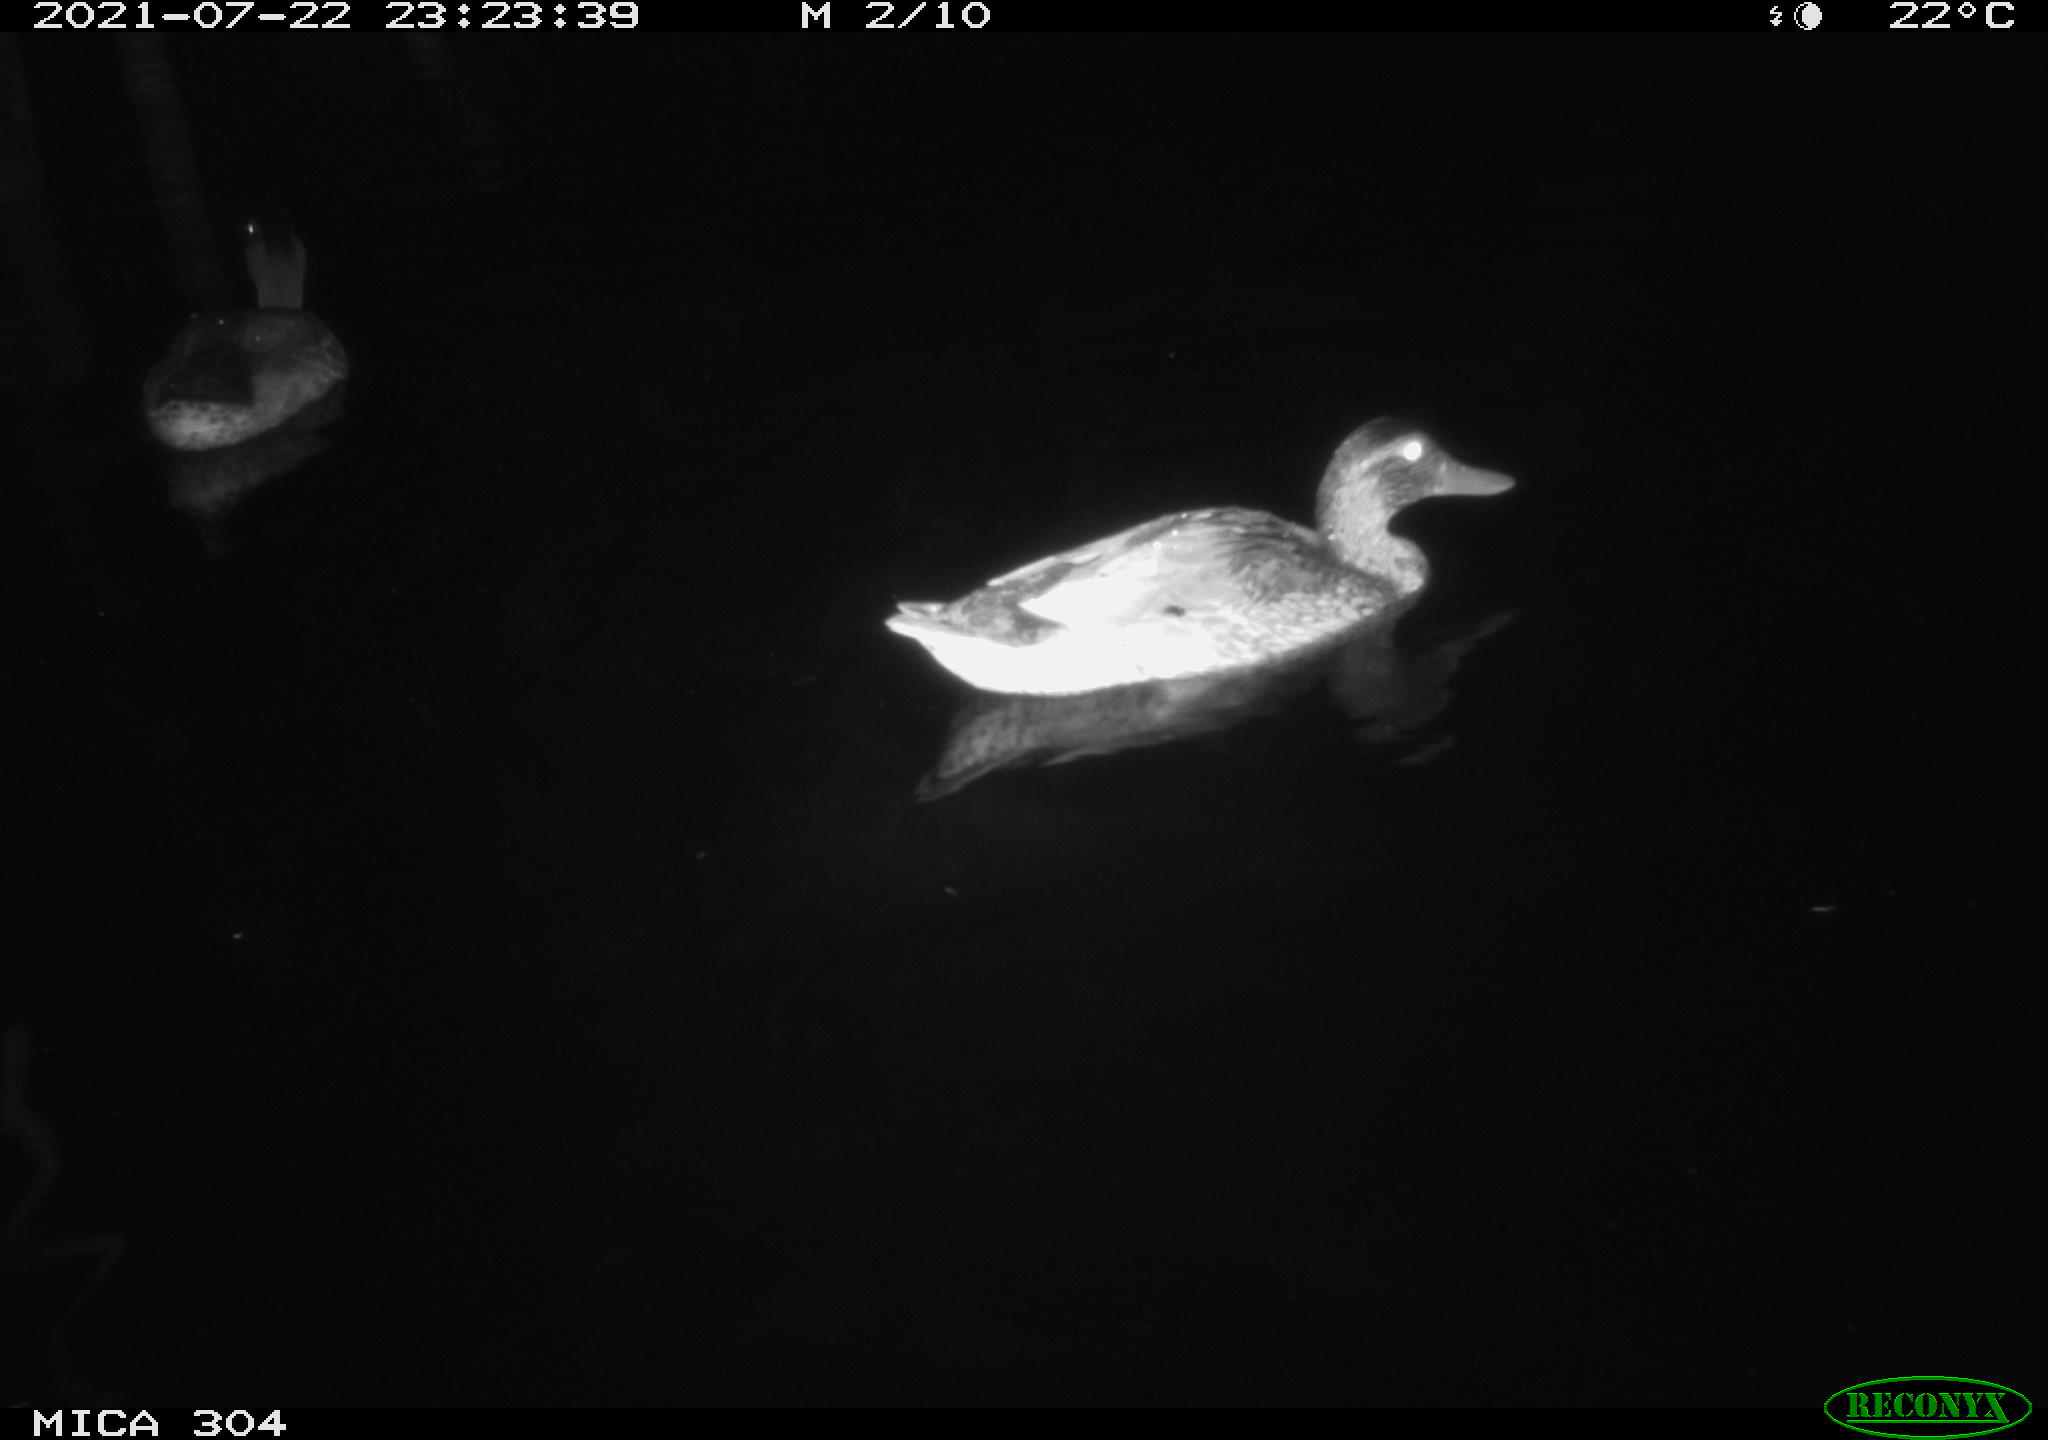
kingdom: Animalia
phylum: Chordata
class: Aves
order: Anseriformes
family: Anatidae
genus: Anas
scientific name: Anas platyrhynchos
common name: Mallard
